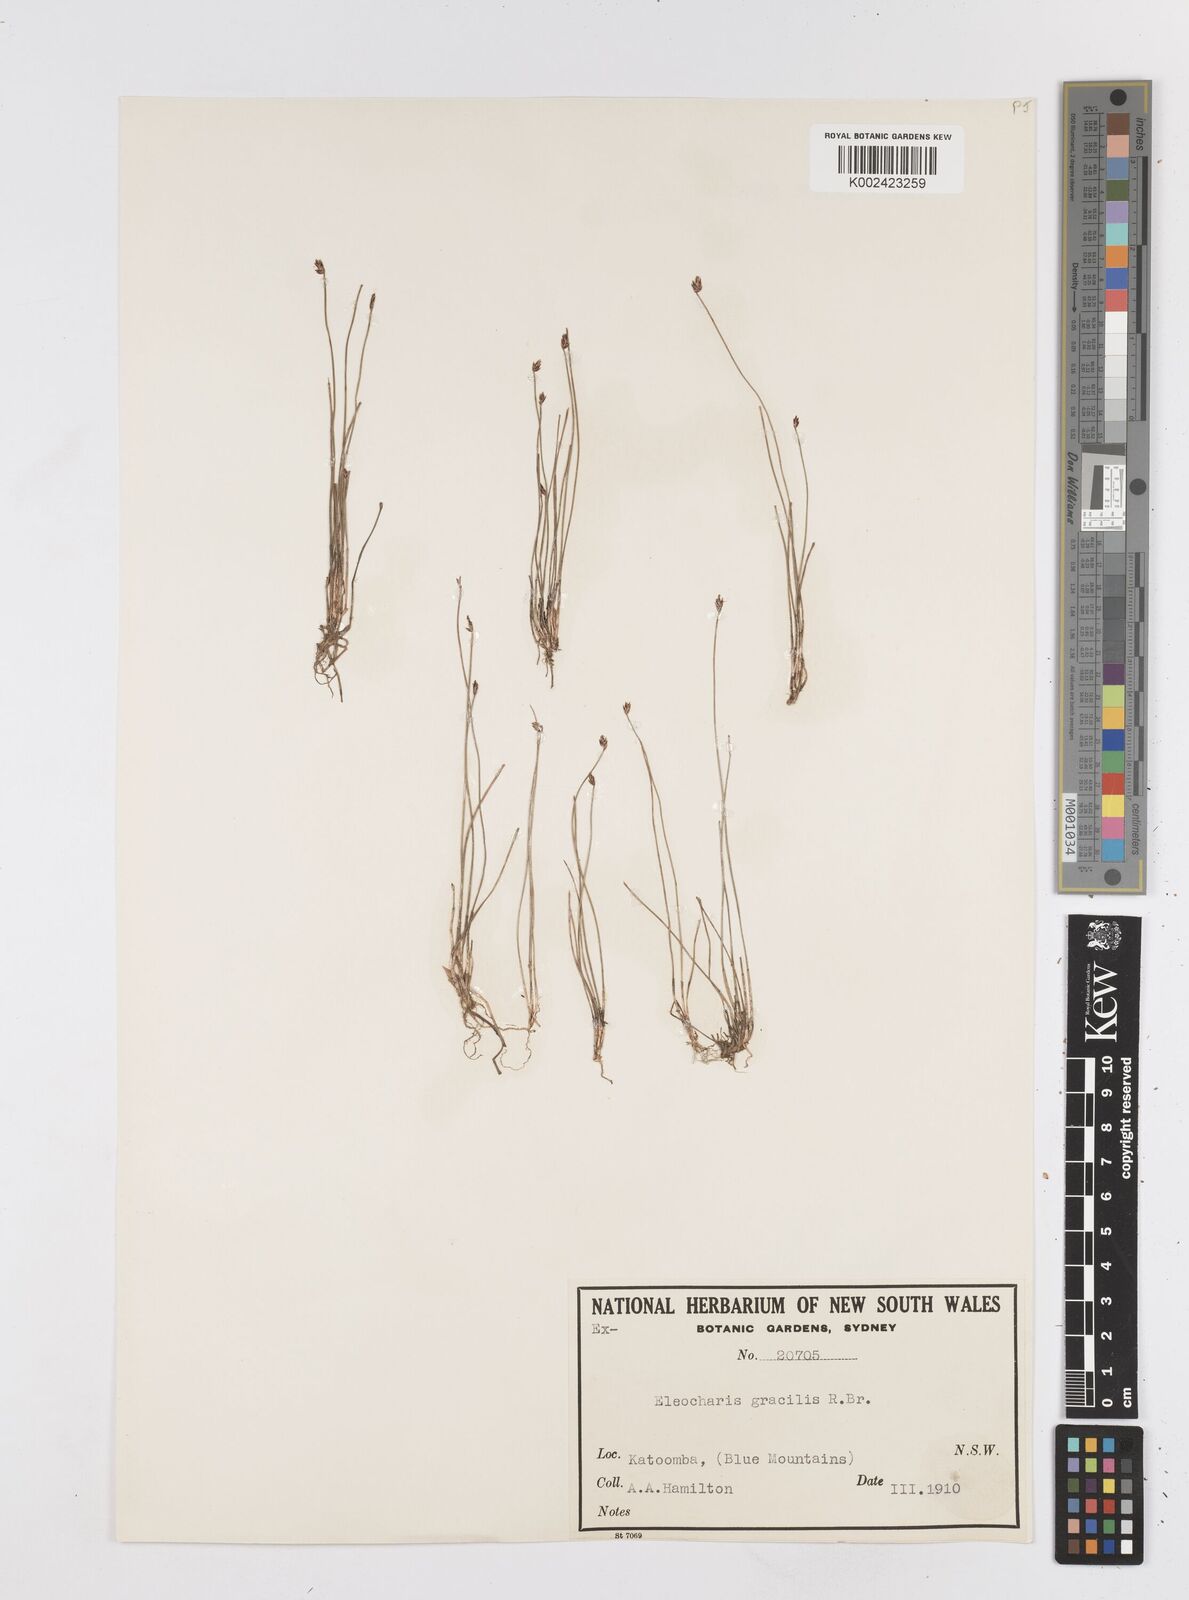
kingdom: Plantae
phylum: Tracheophyta
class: Liliopsida
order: Poales
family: Cyperaceae
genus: Eleocharis
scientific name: Eleocharis multicaulis
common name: Many-stalked spike-rush
